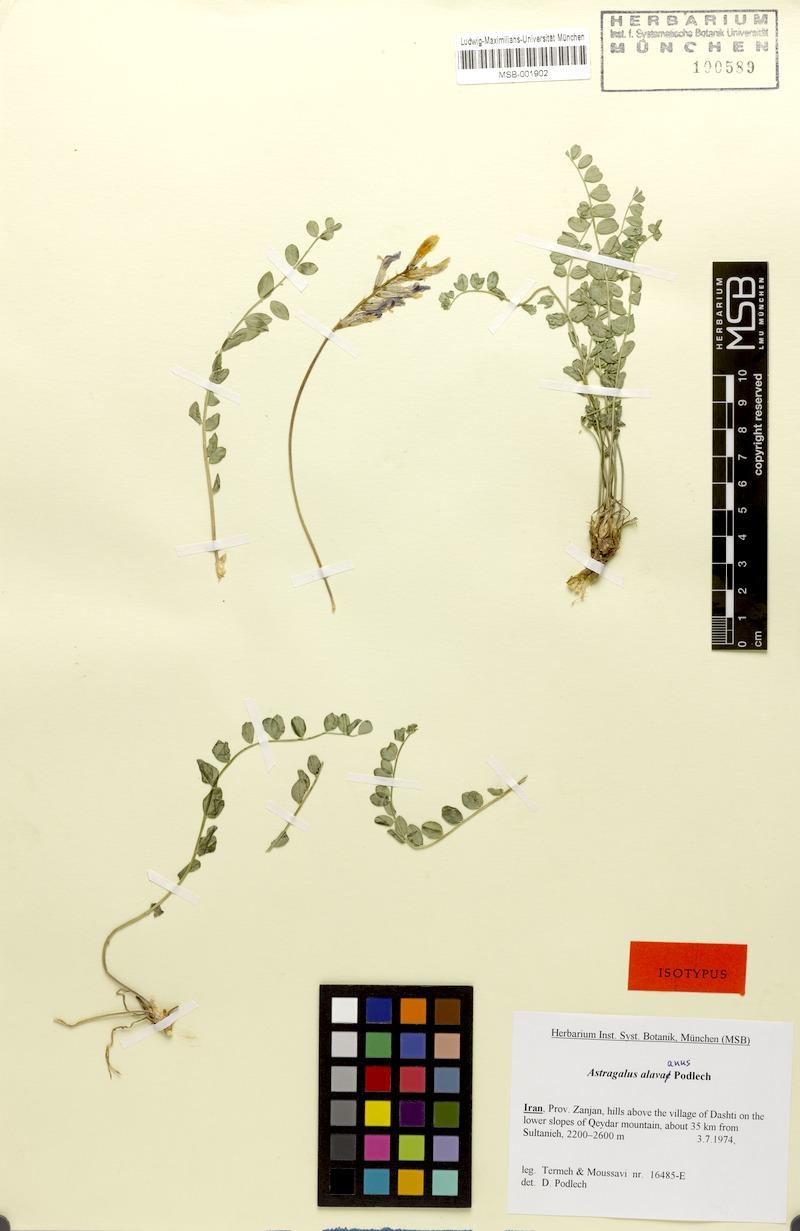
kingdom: Plantae
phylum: Tracheophyta
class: Magnoliopsida
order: Fabales
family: Fabaceae
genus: Astragalus
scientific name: Astragalus alavaanus
